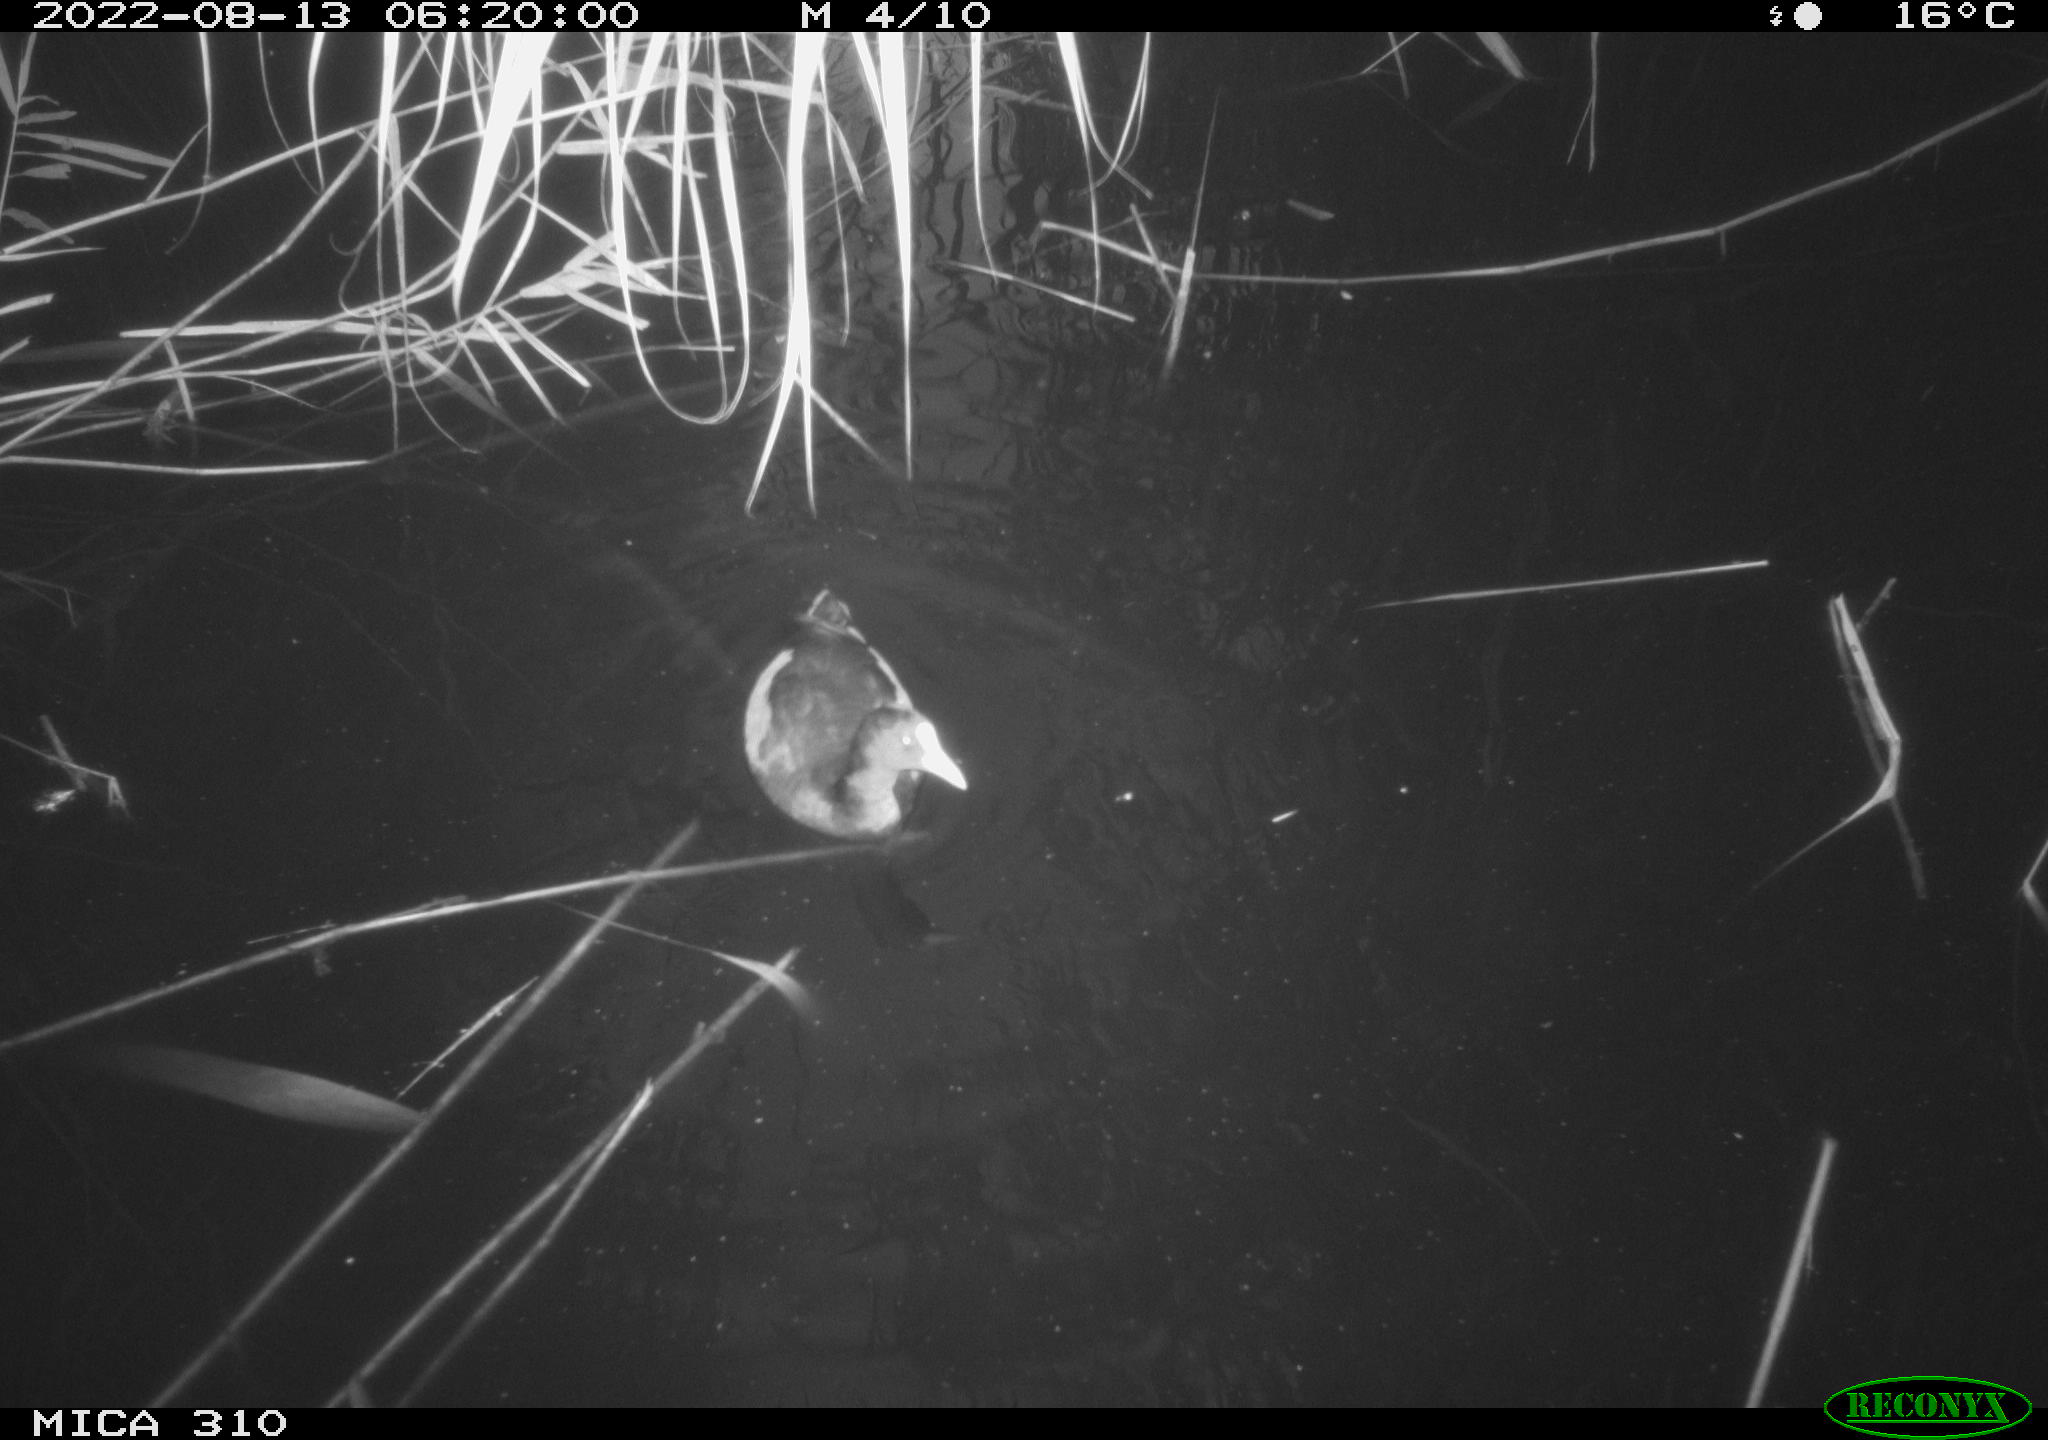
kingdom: Animalia
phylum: Chordata
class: Aves
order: Gruiformes
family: Rallidae
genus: Fulica
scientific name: Fulica atra
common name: Eurasian coot
